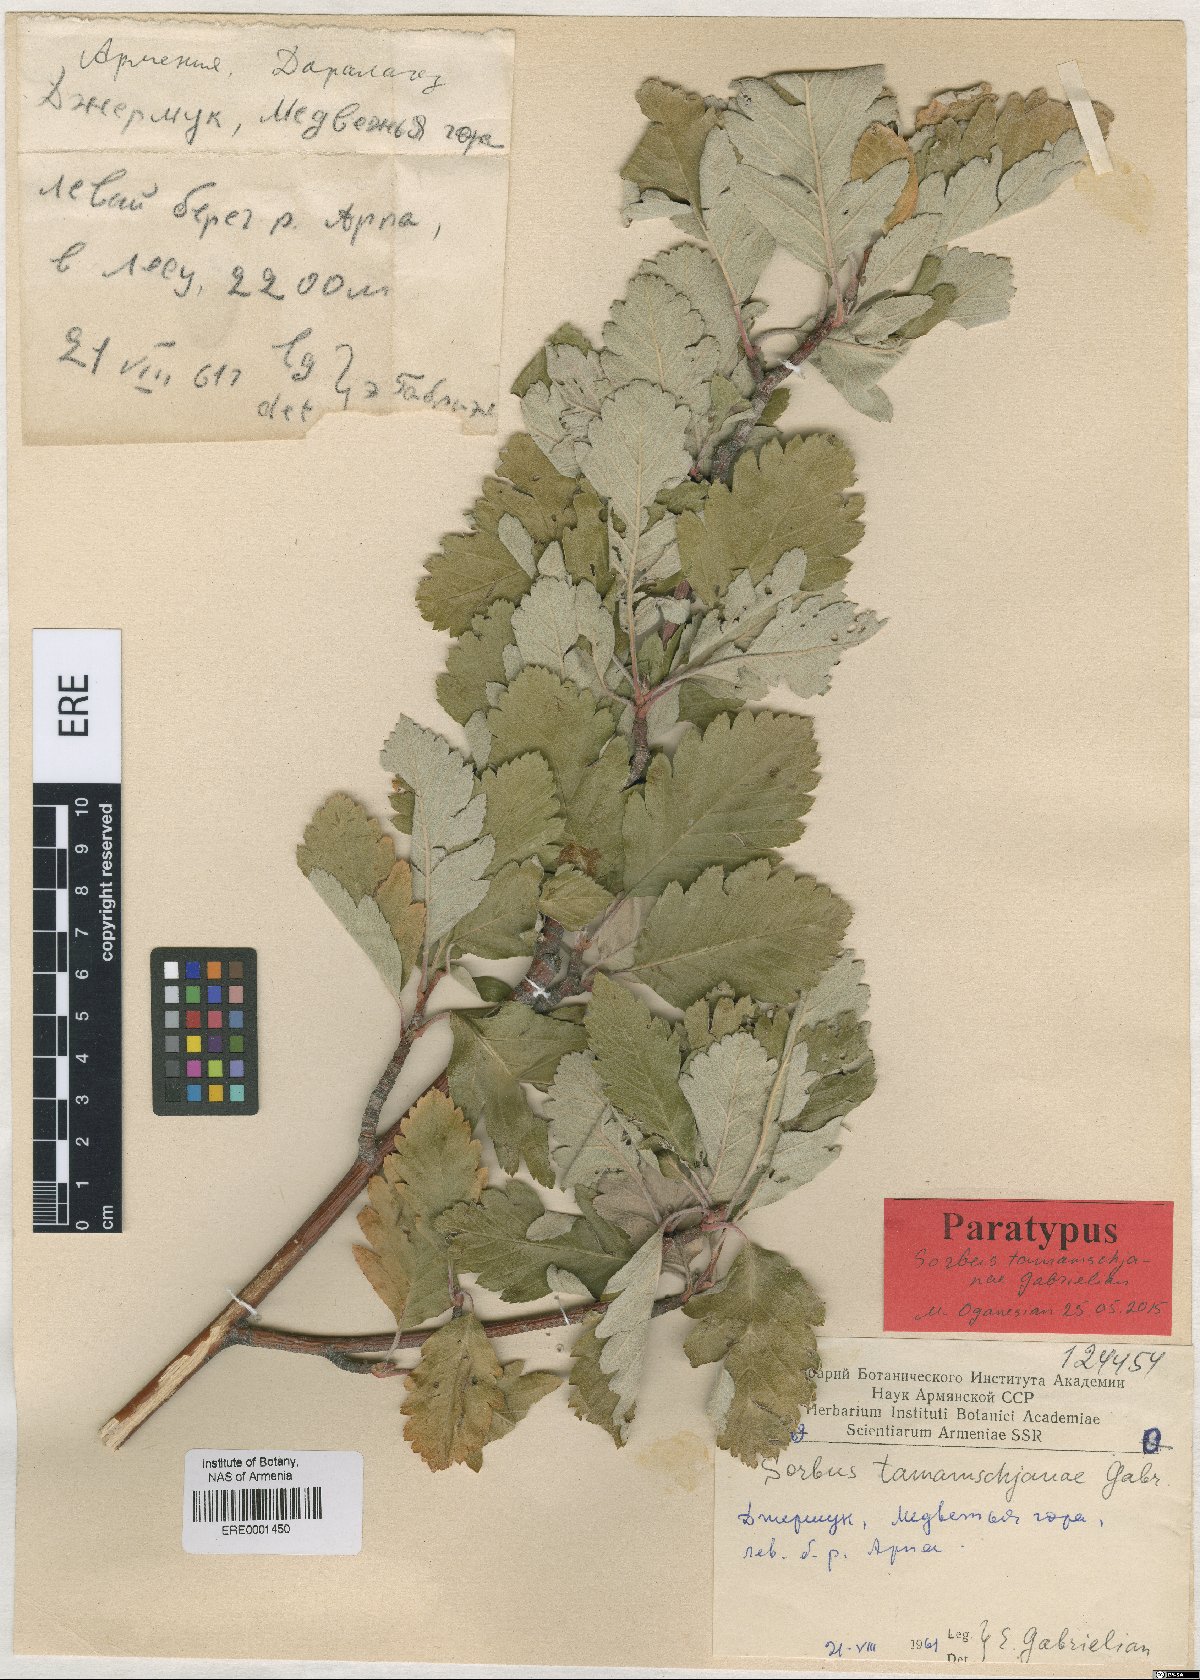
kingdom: Plantae
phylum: Tracheophyta
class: Magnoliopsida
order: Rosales
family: Rosaceae
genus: Hedlundia
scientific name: Hedlundia tamamschjanae
